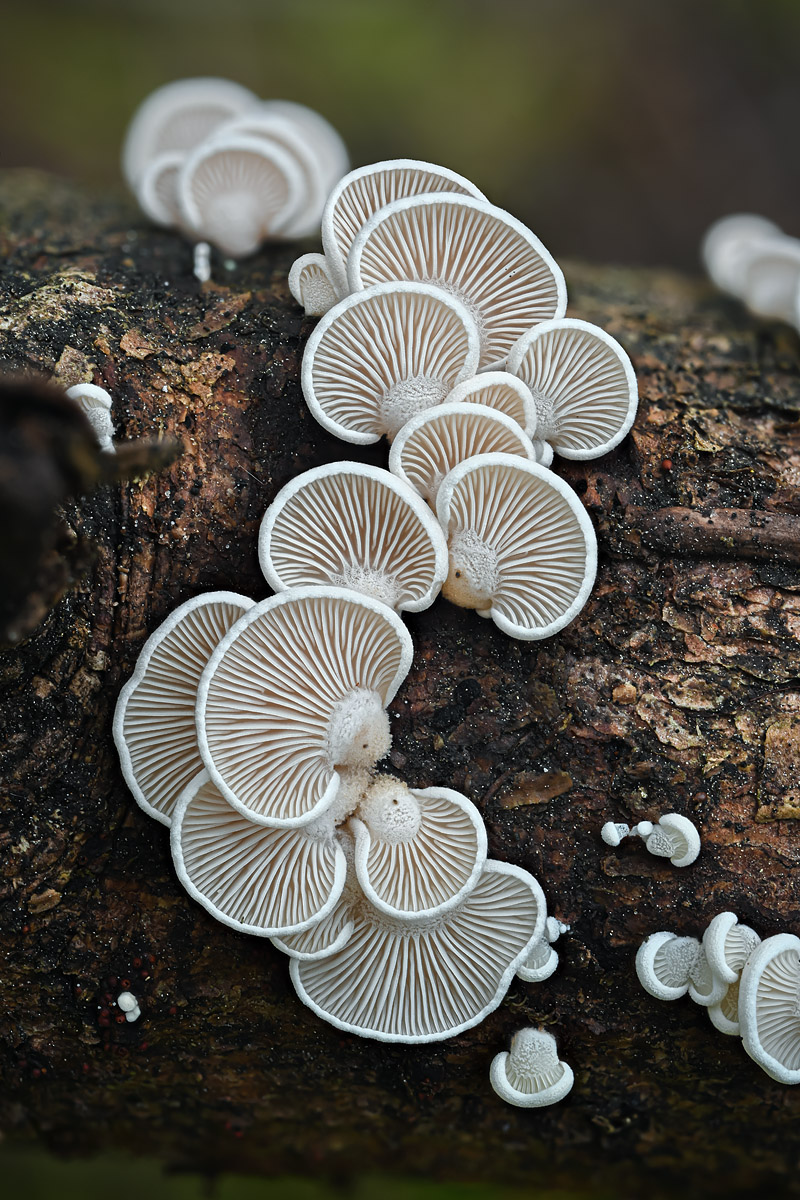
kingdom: Fungi
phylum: Basidiomycota
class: Agaricomycetes
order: Agaricales
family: Mycenaceae
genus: Panellus
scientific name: Panellus mitis
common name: mild epaulethat
